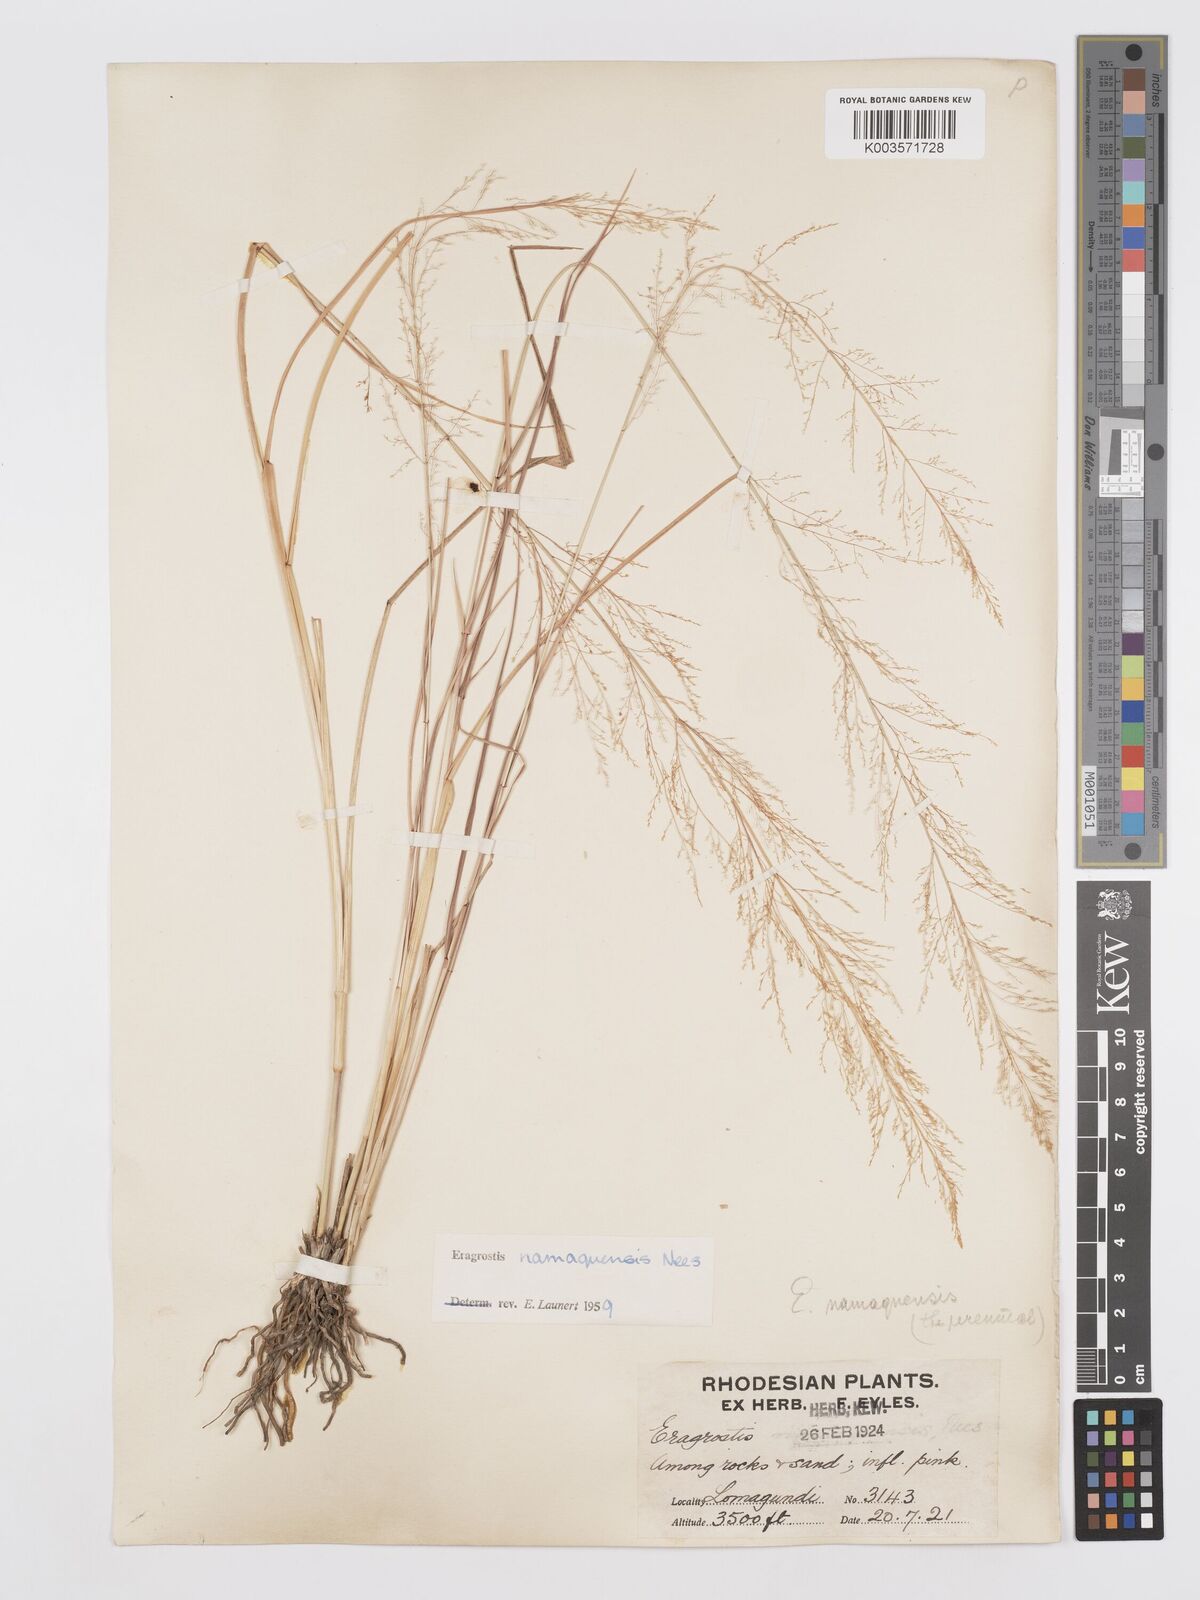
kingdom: Plantae
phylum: Tracheophyta
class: Liliopsida
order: Poales
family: Poaceae
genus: Eragrostis
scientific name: Eragrostis japonica
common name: Pond lovegrass
